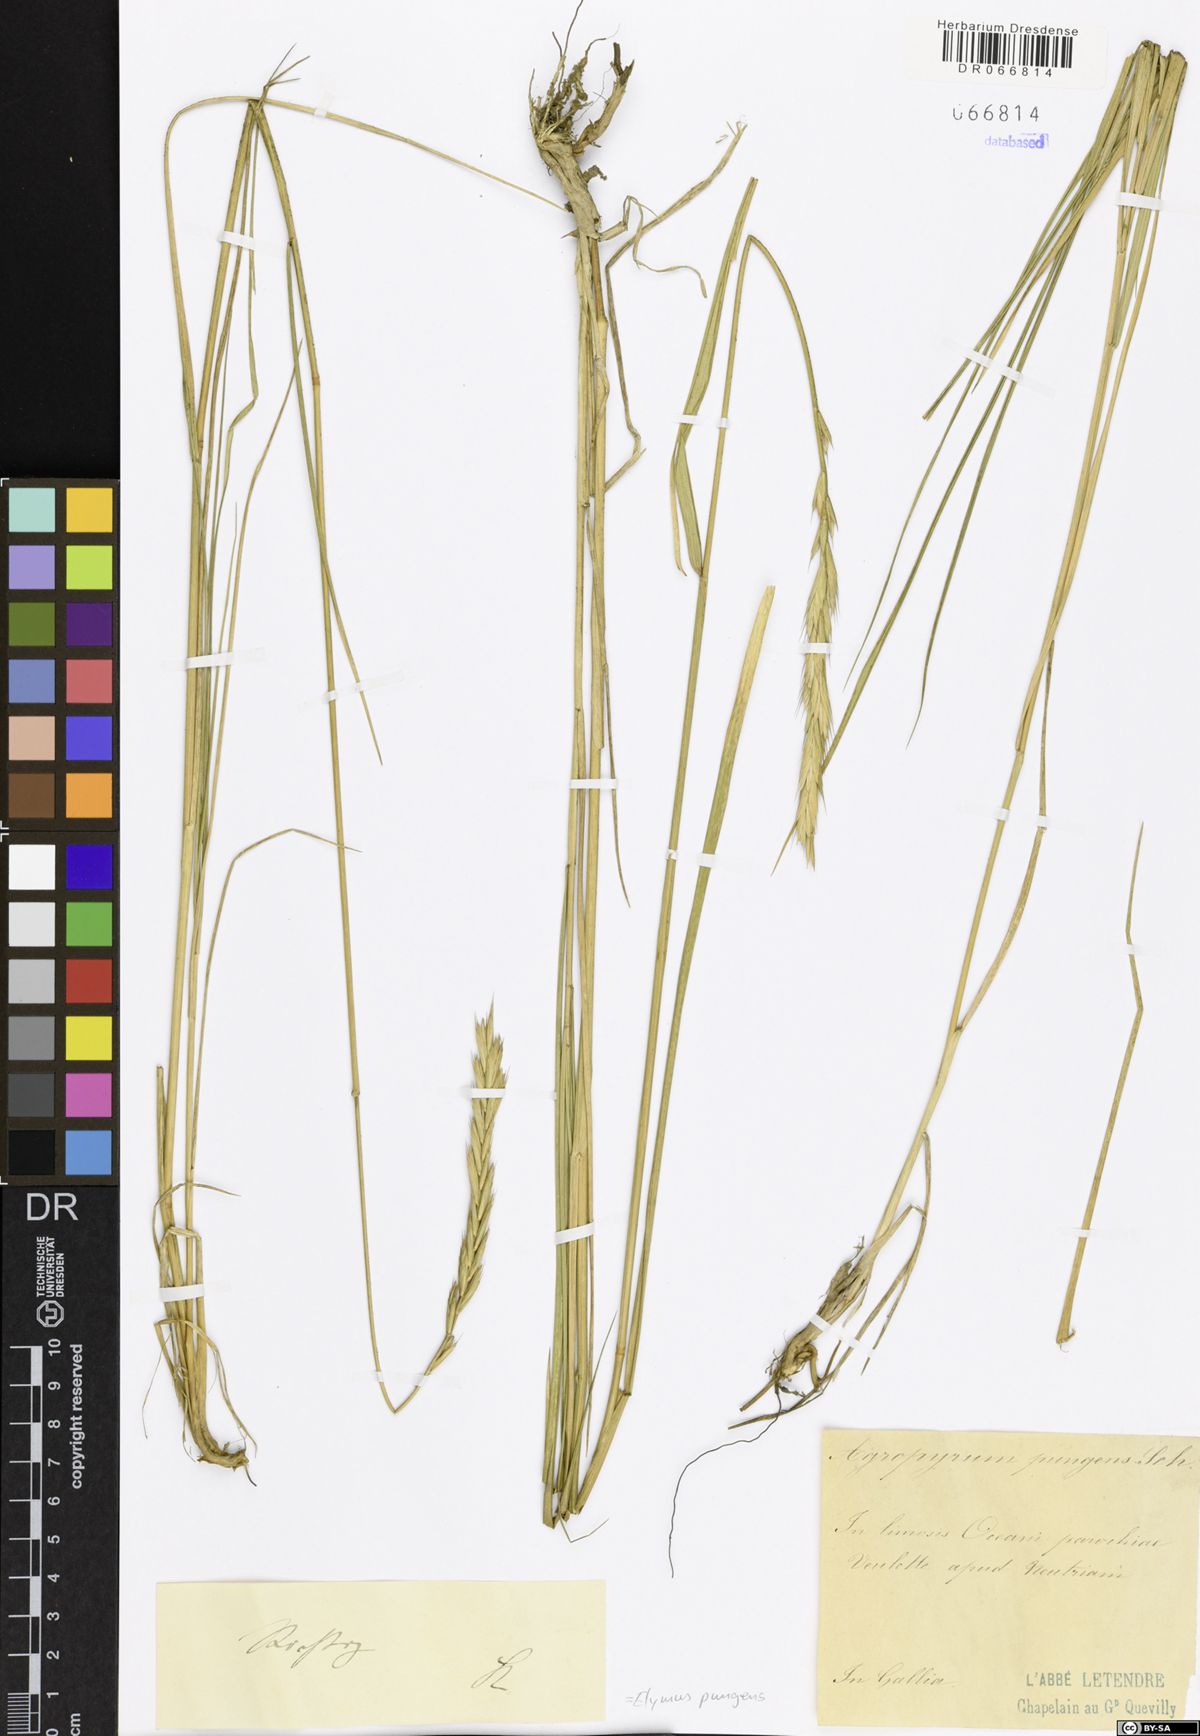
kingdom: Plantae
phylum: Tracheophyta
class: Liliopsida
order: Poales
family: Poaceae
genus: Elymus
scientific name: Elymus pungens
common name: Sea couch
